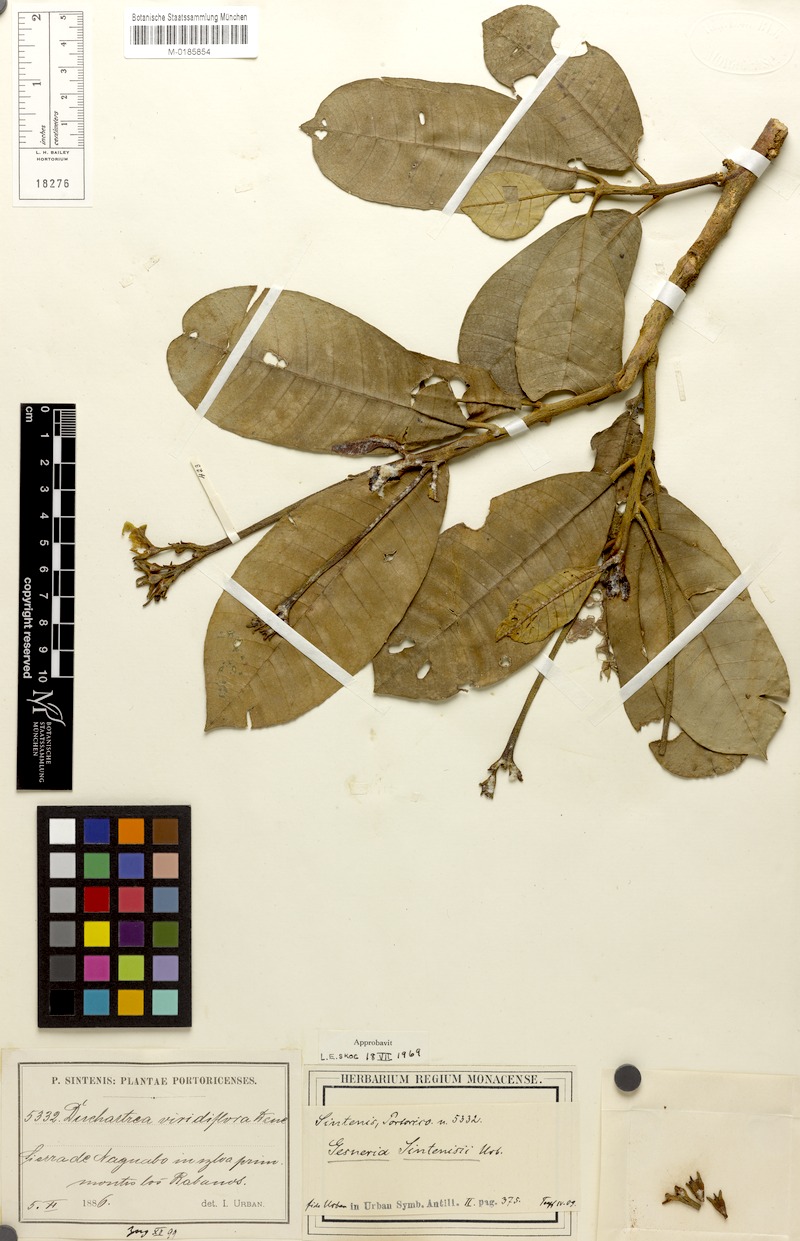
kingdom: Plantae
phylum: Tracheophyta
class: Magnoliopsida
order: Lamiales
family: Gesneriaceae
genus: Gesneria
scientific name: Gesneria sintenisii
